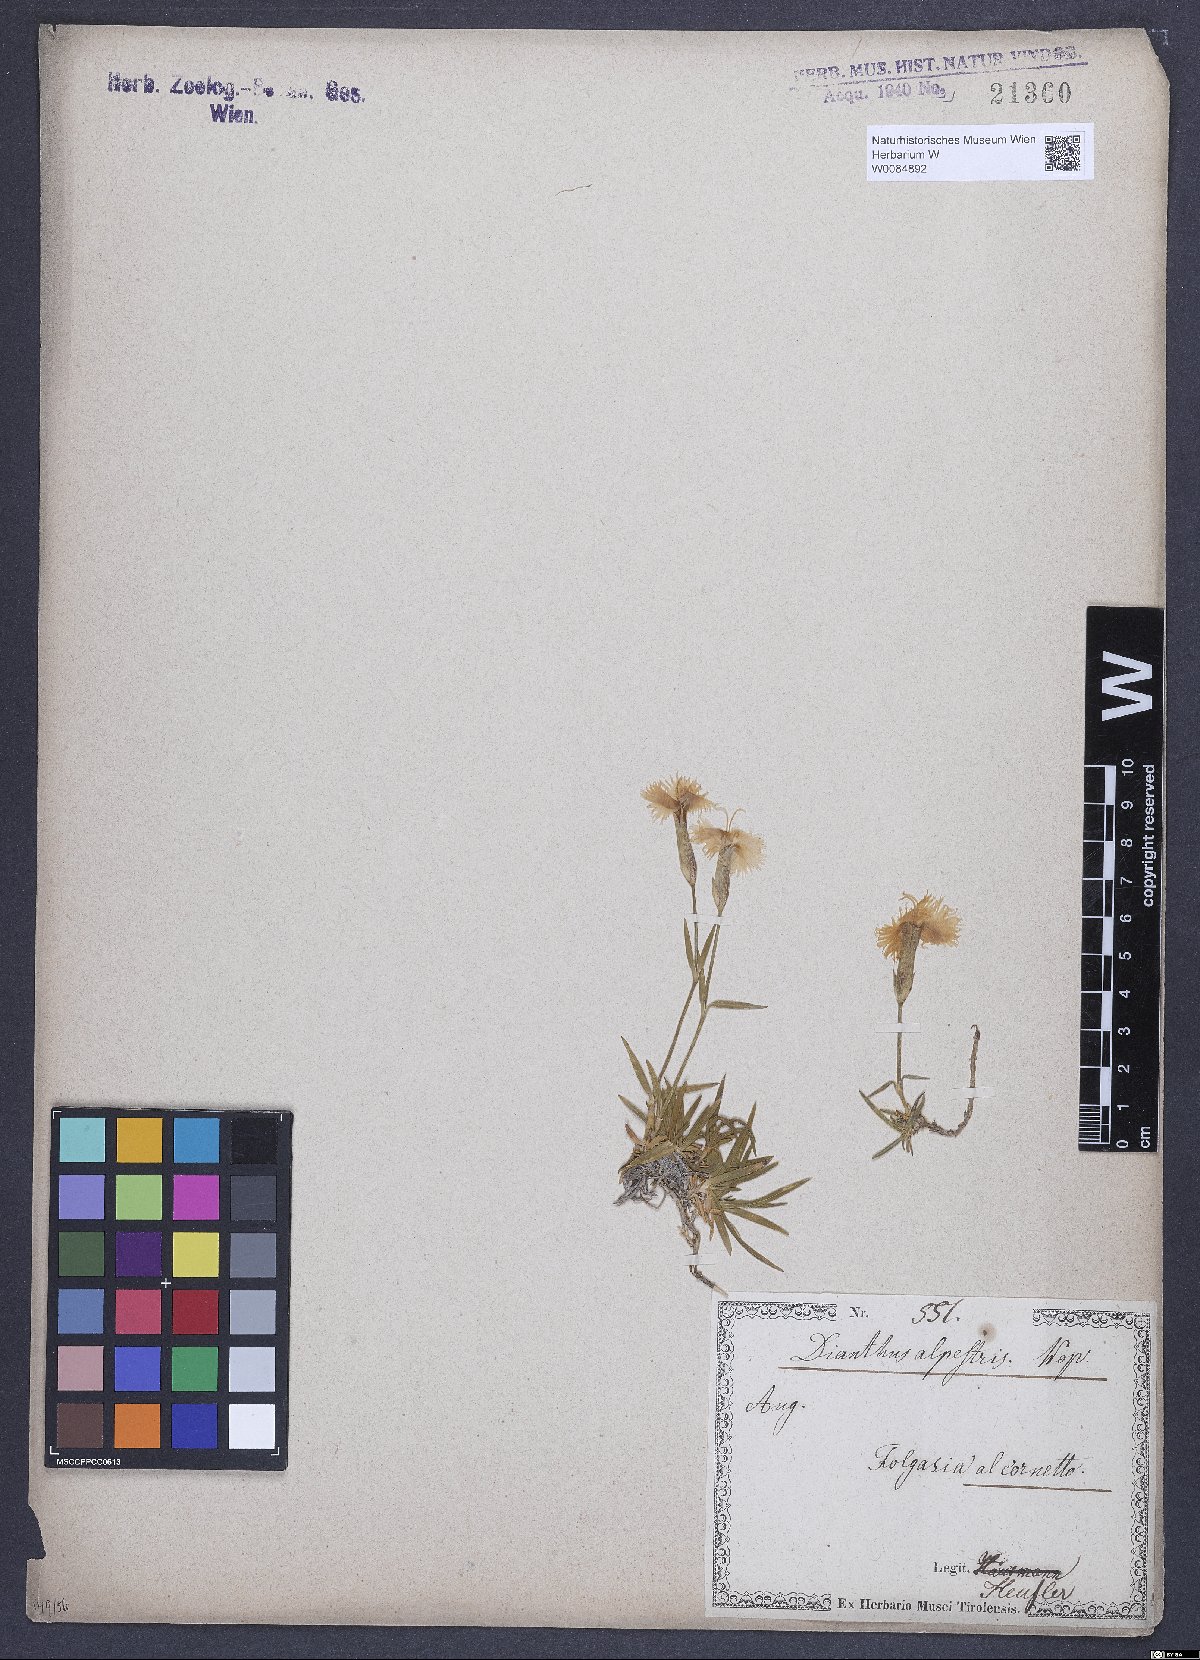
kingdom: Plantae
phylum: Tracheophyta
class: Magnoliopsida
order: Caryophyllales
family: Caryophyllaceae
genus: Dianthus
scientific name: Dianthus chinensis
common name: Rainbow pink
